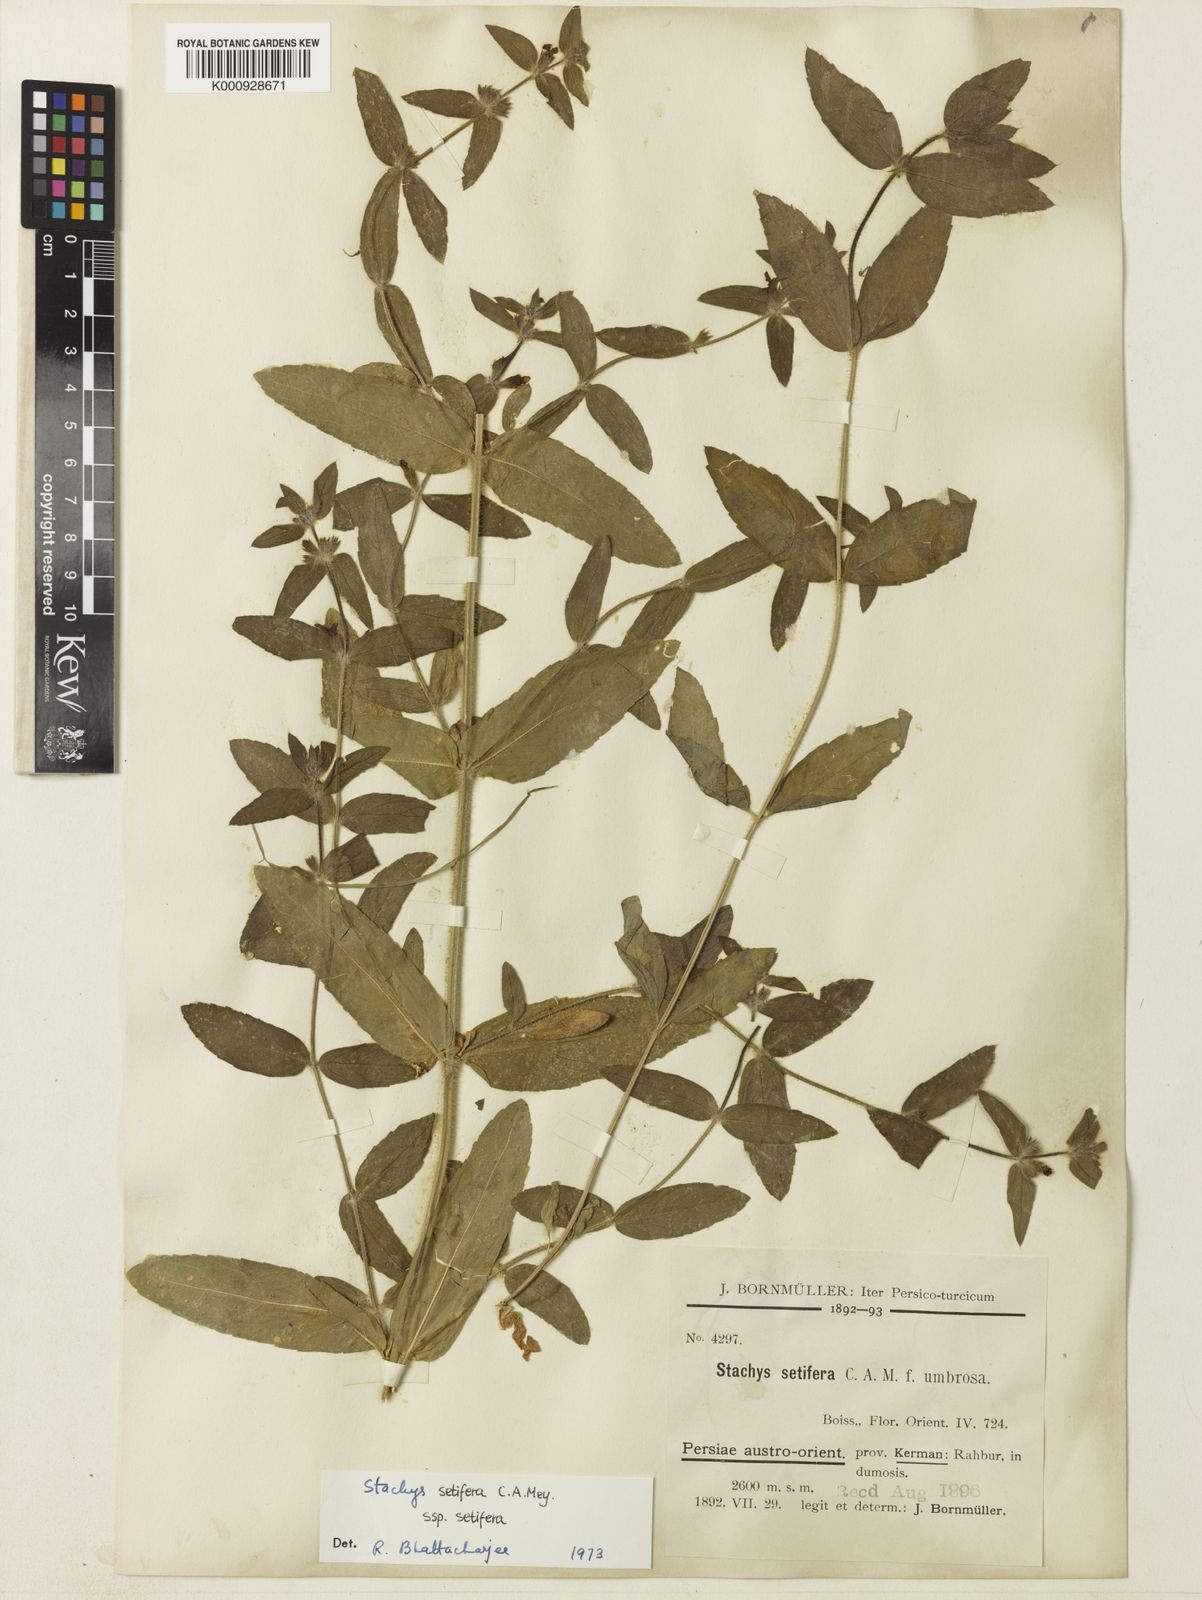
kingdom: Plantae
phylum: Tracheophyta
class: Magnoliopsida
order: Lamiales
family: Lamiaceae
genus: Stachys
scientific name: Stachys setifera
